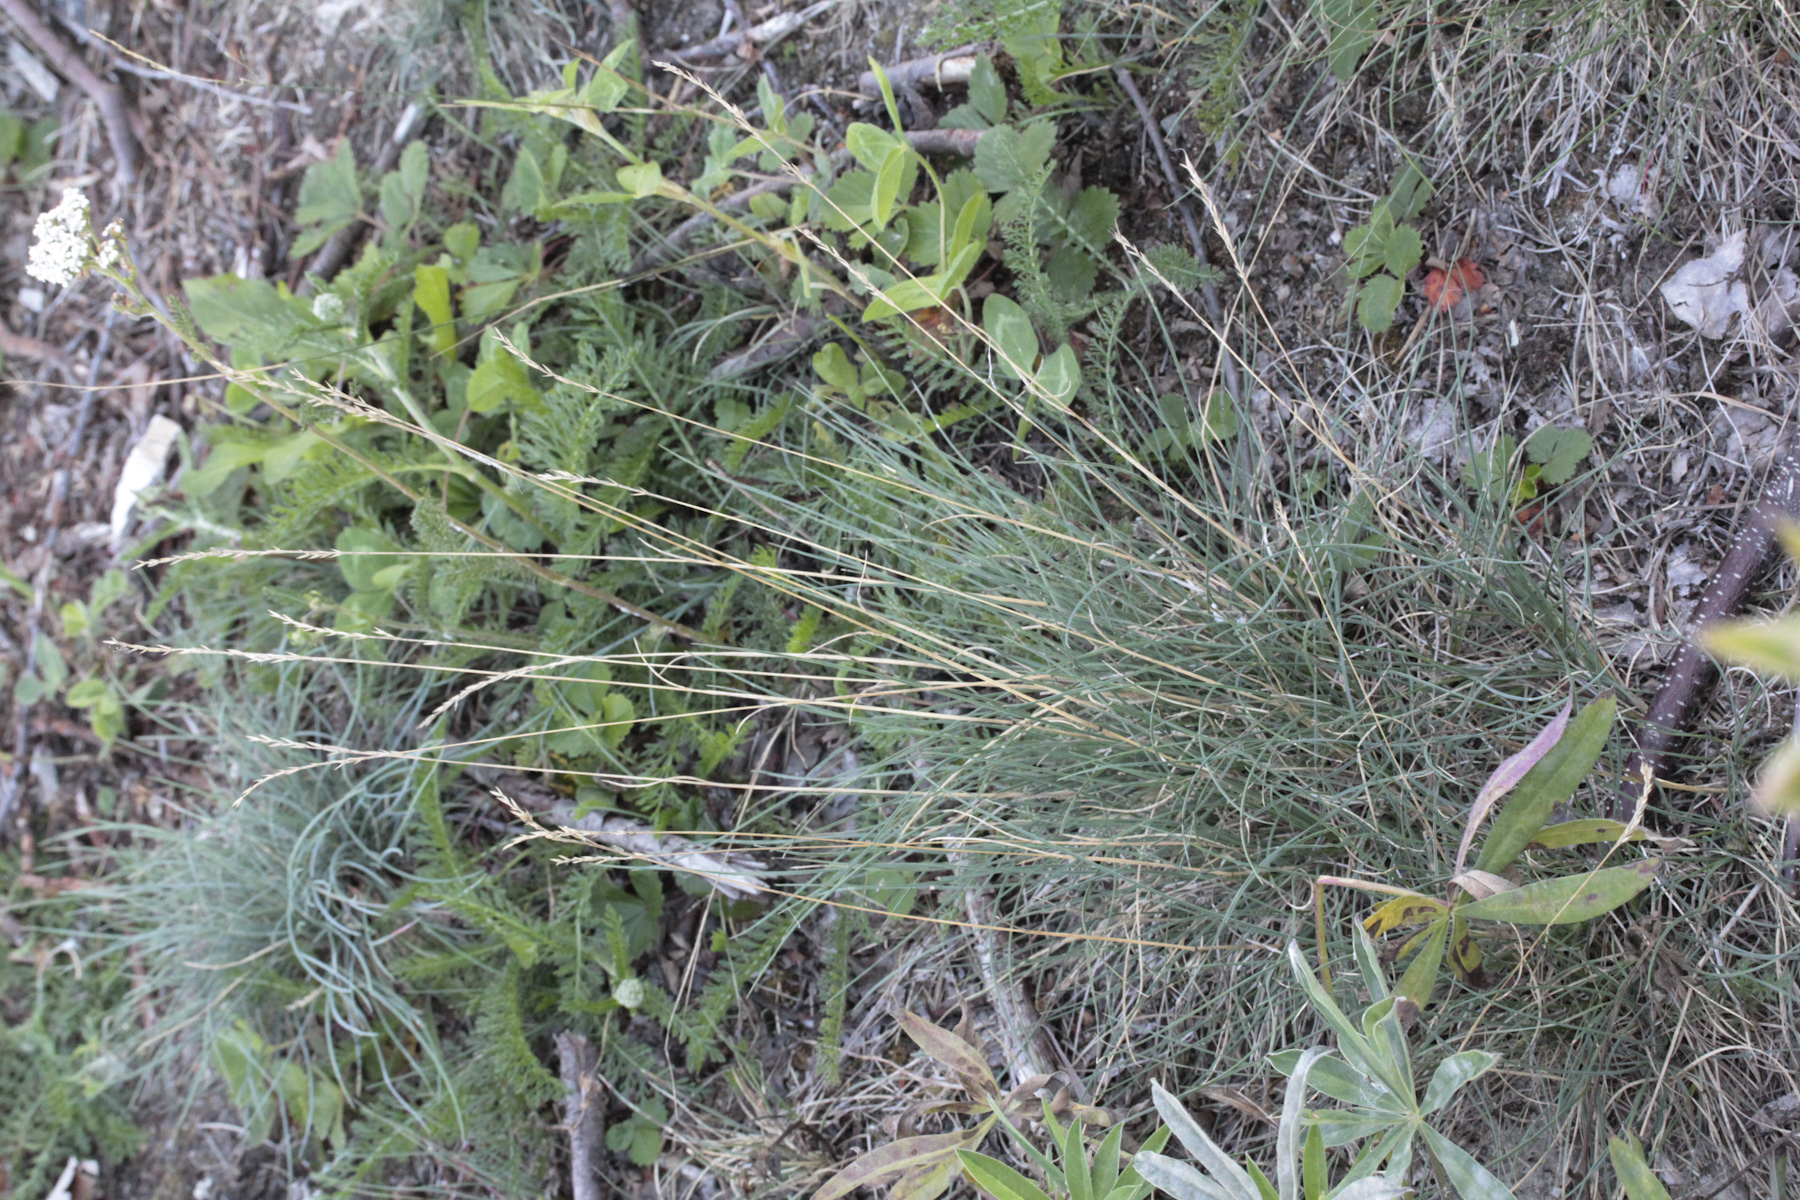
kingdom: Plantae
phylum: Tracheophyta
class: Liliopsida
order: Poales
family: Poaceae
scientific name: Poaceae
